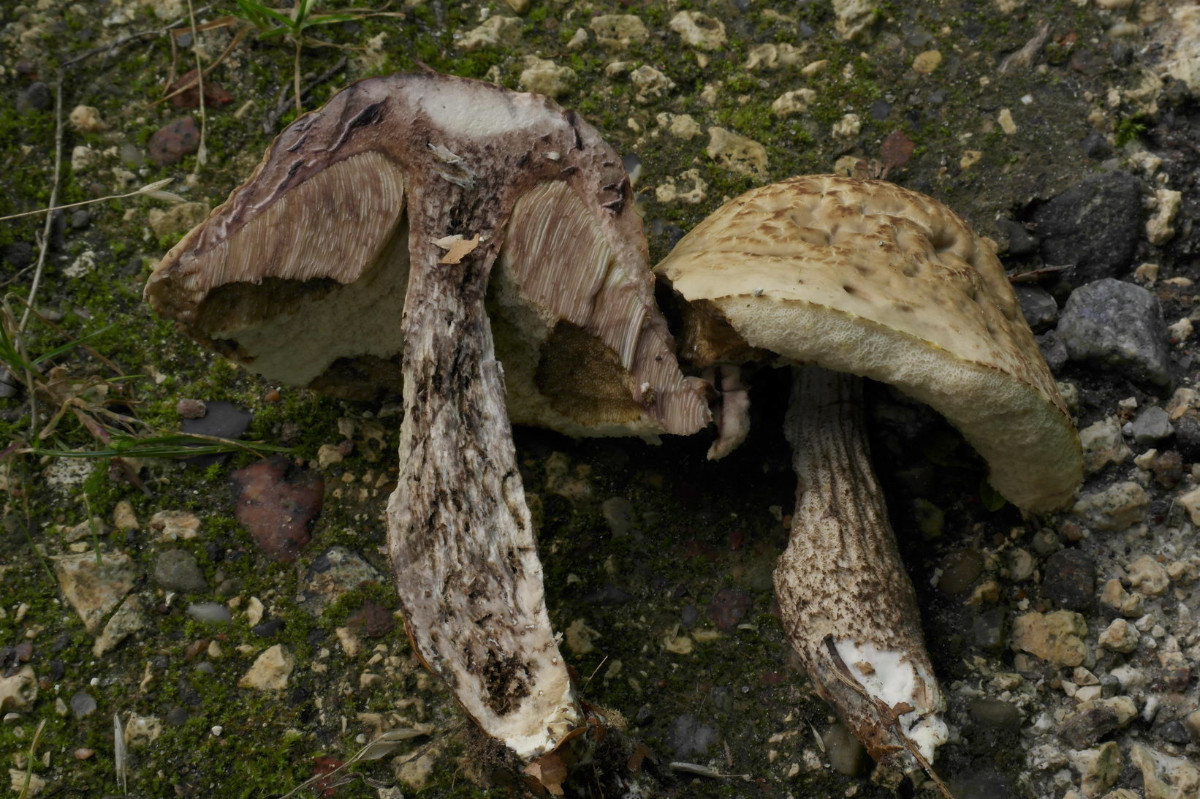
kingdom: Fungi
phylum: Basidiomycota
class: Agaricomycetes
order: Boletales
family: Boletaceae
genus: Leccinellum
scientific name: Leccinellum pseudoscabrum
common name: avnbøg-skælrørhat
